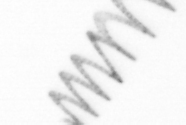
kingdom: Chromista
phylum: Ochrophyta
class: Bacillariophyceae
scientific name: Bacillariophyceae
